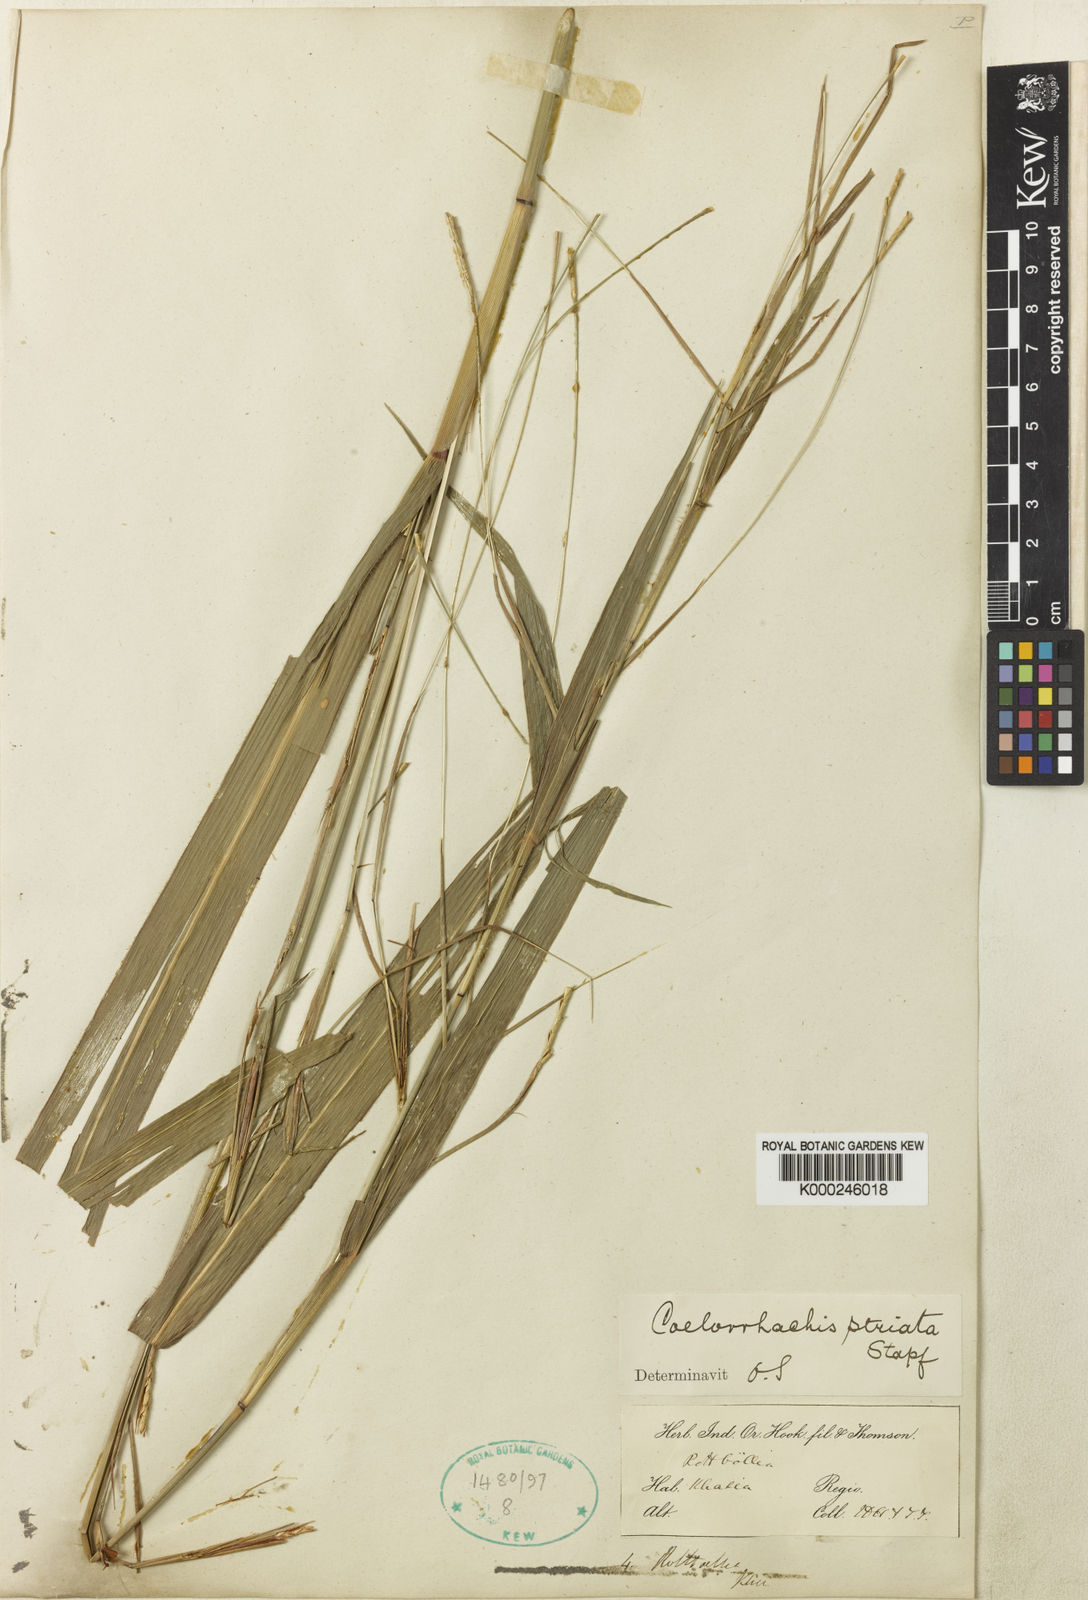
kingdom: Plantae
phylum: Tracheophyta
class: Liliopsida
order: Poales
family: Poaceae
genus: Rottboellia
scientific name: Rottboellia striata
